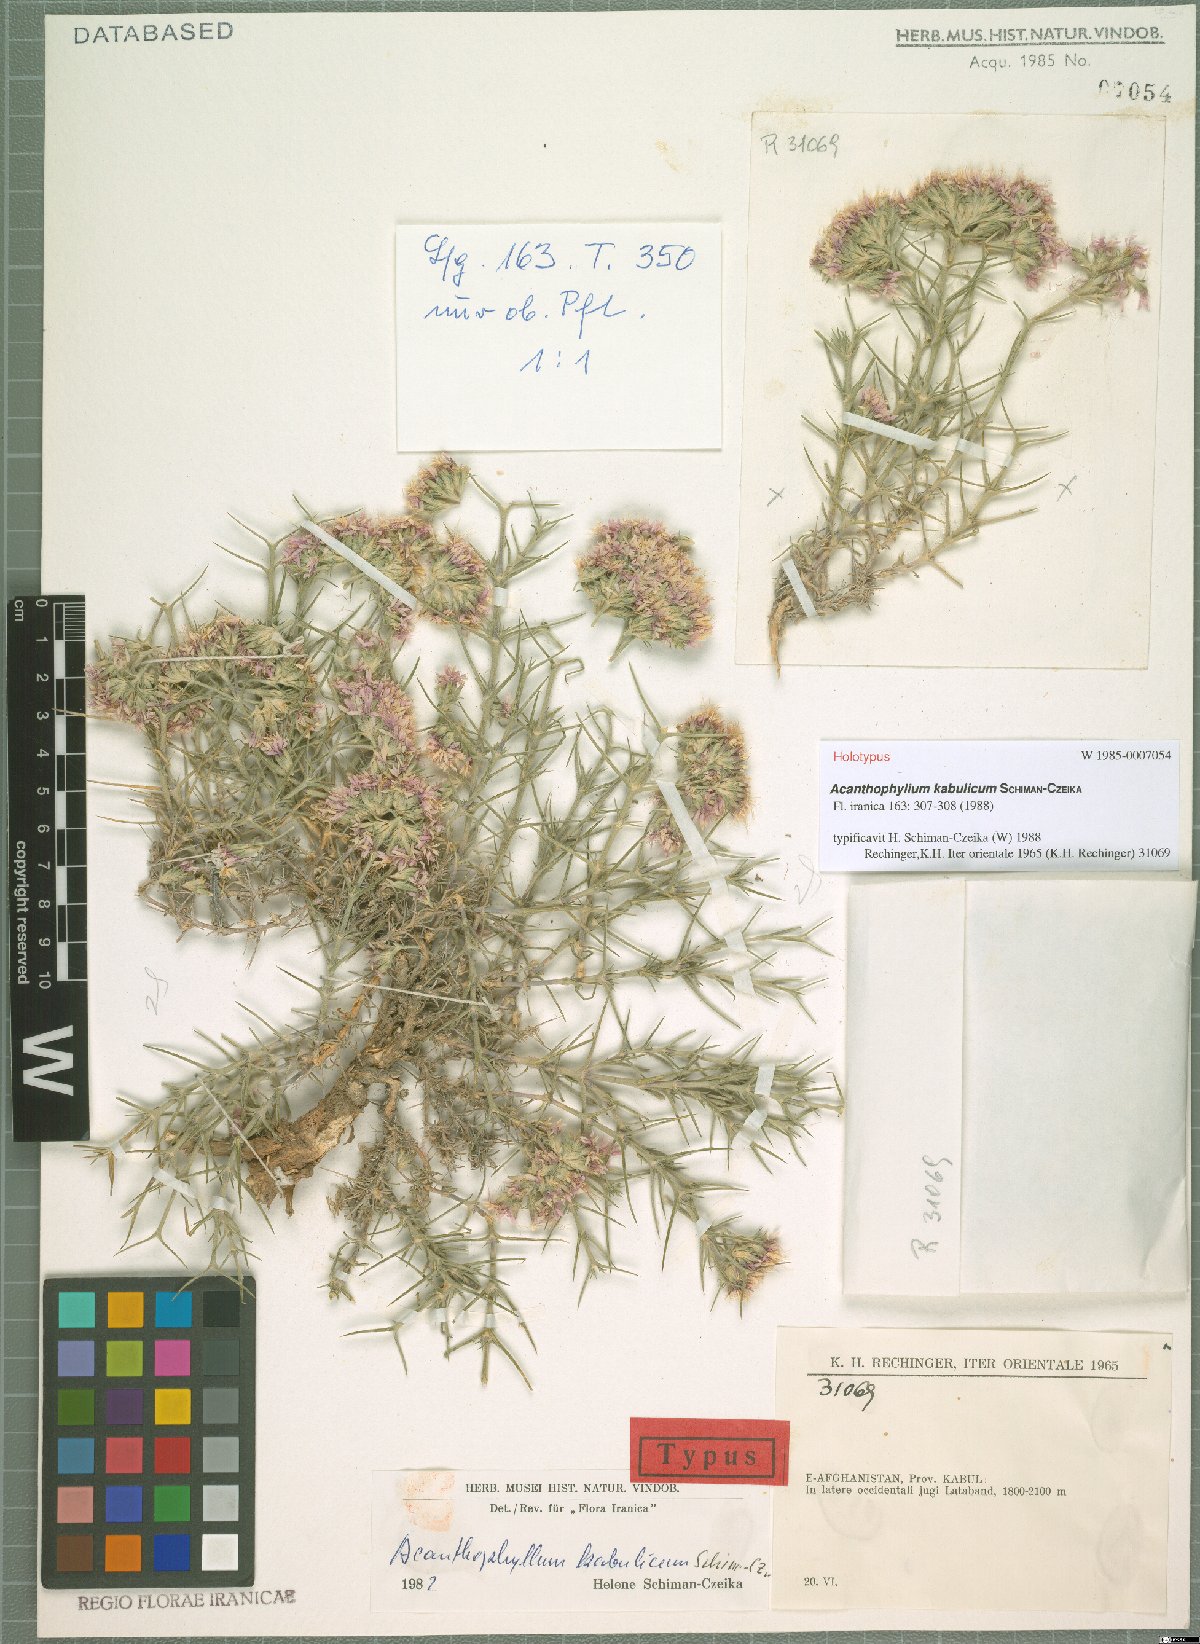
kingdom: Plantae
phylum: Tracheophyta
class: Magnoliopsida
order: Caryophyllales
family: Caryophyllaceae
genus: Acanthophyllum
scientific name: Acanthophyllum kabulicum
